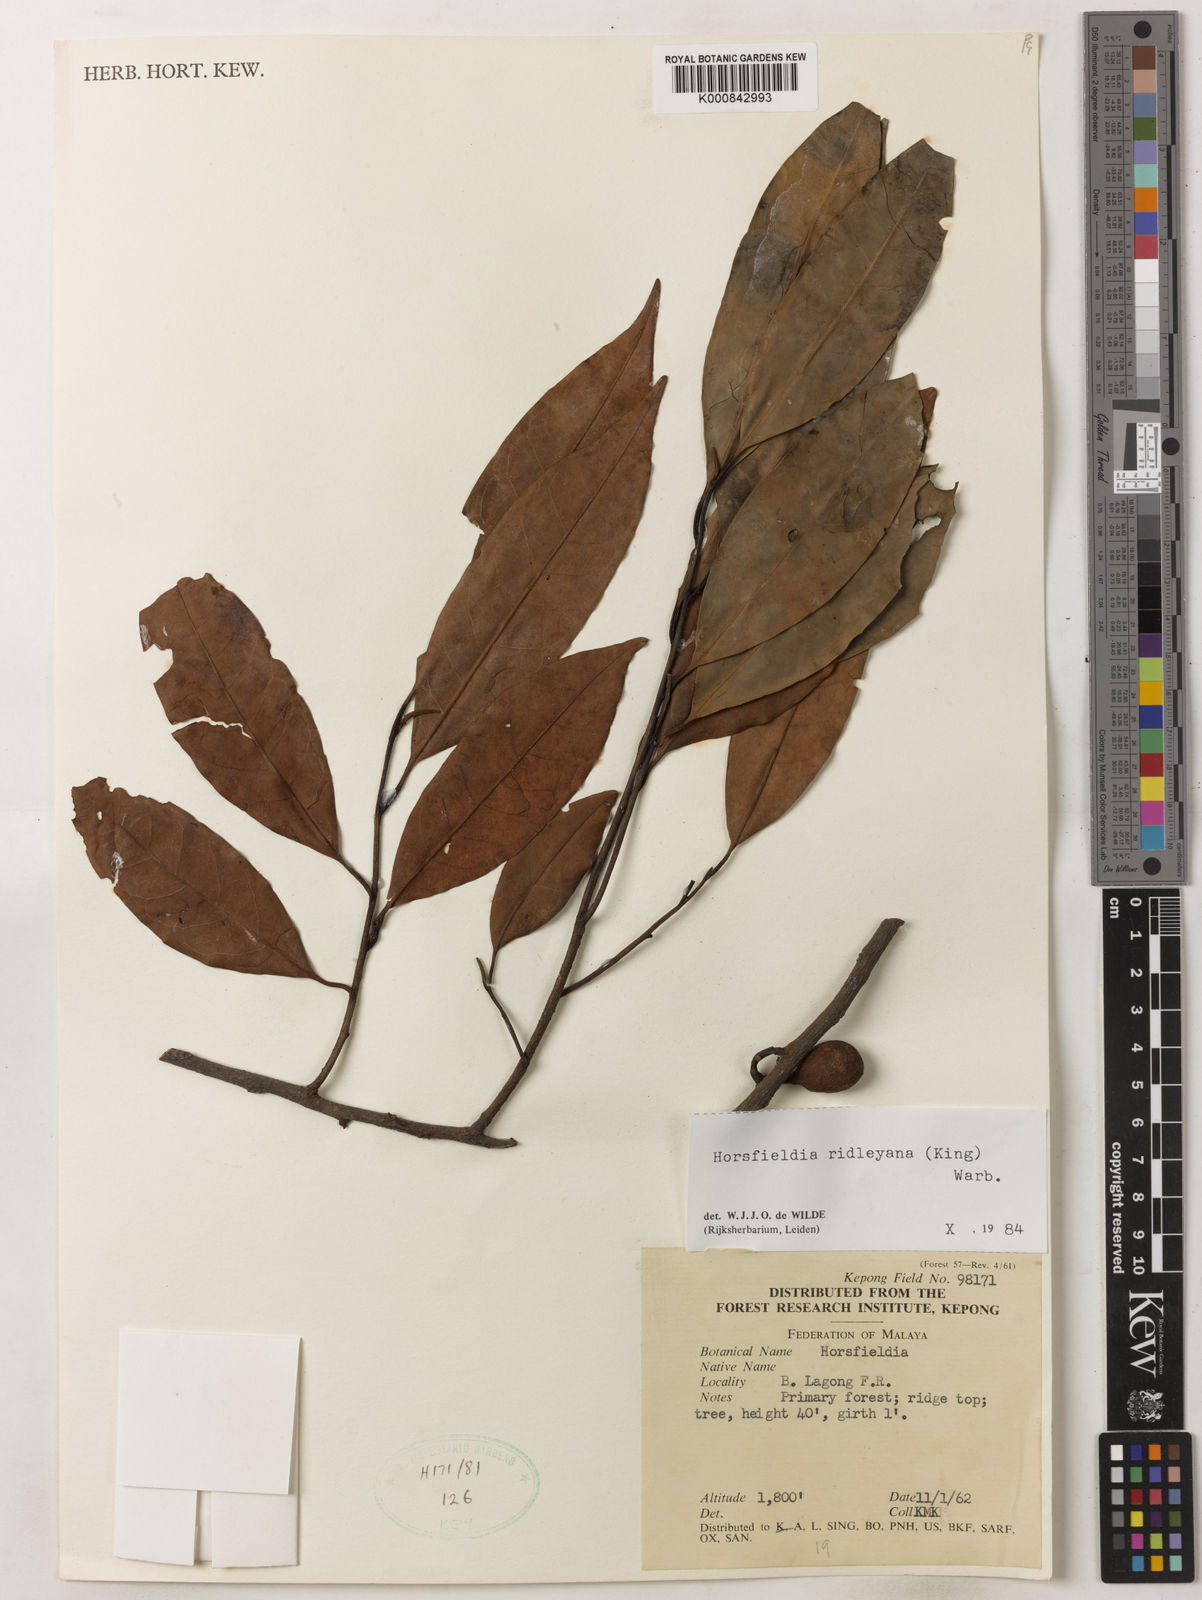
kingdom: Plantae
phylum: Tracheophyta
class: Magnoliopsida
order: Magnoliales
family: Myristicaceae
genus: Horsfieldia
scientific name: Horsfieldia ridleyana
